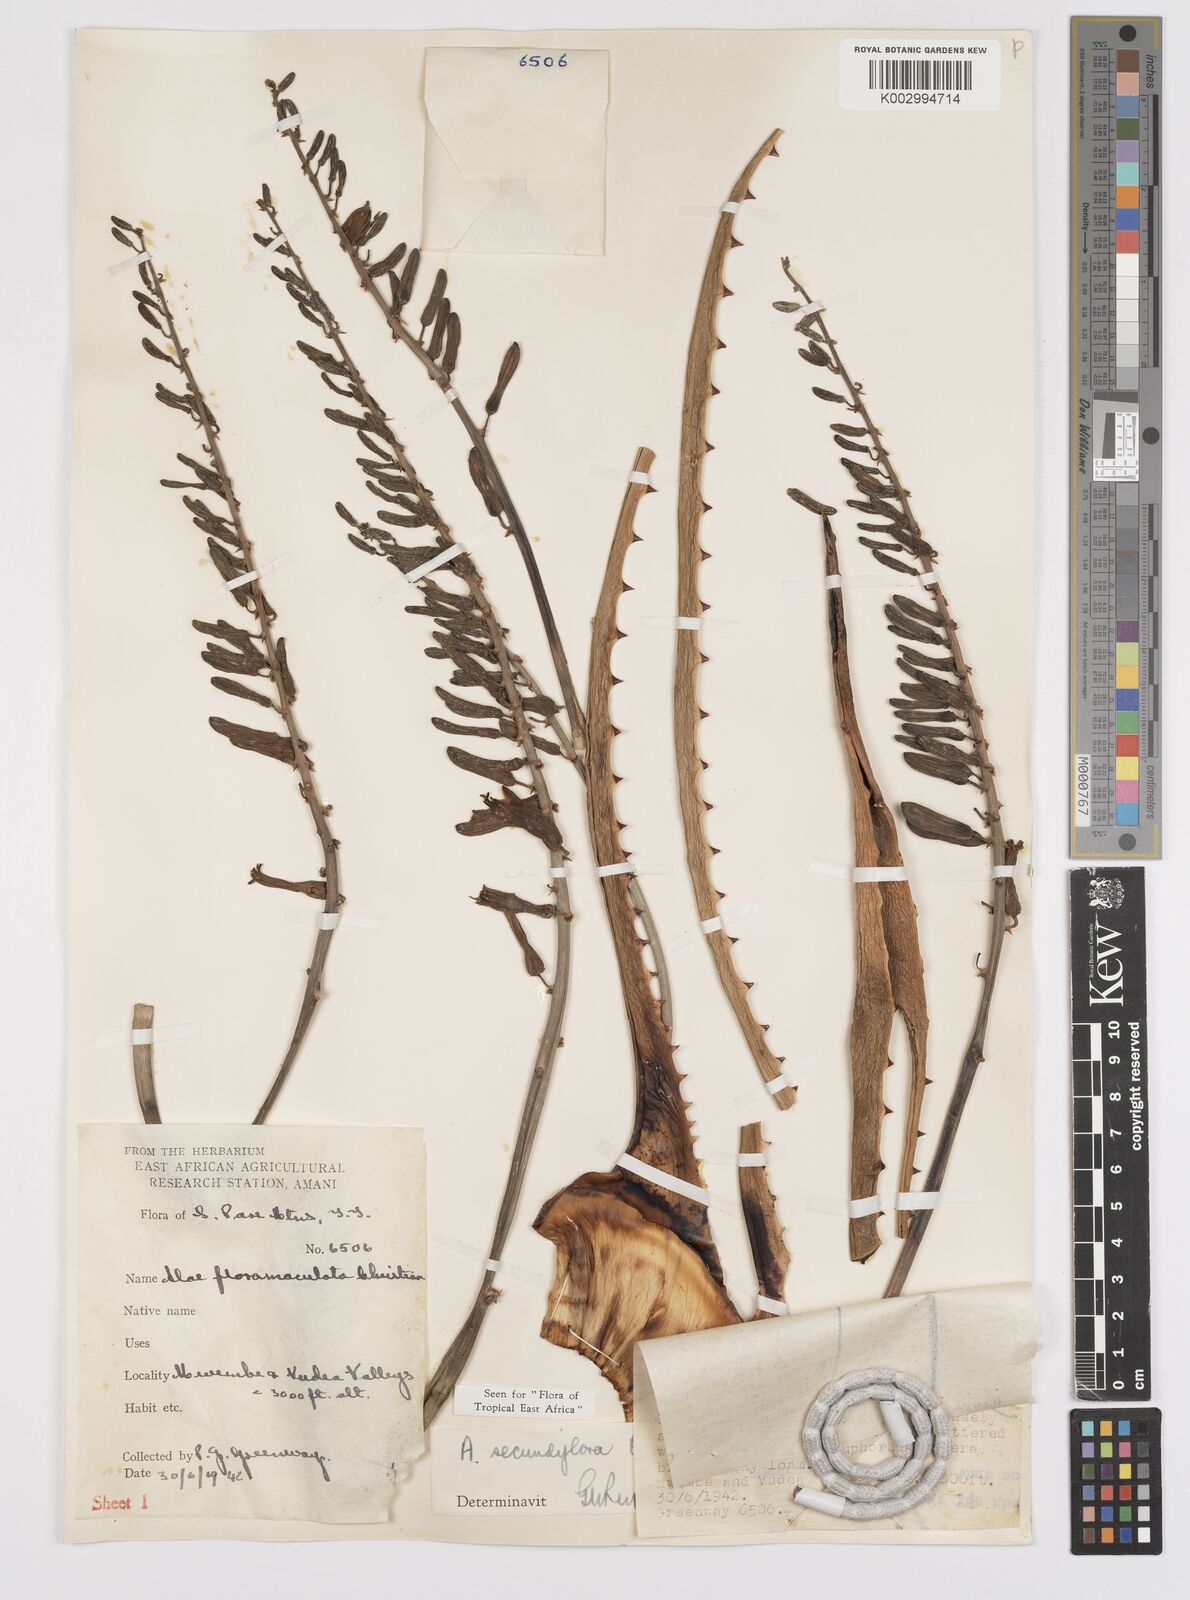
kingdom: Plantae
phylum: Tracheophyta
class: Liliopsida
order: Asparagales
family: Asphodelaceae
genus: Aloe
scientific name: Aloe secundiflora
